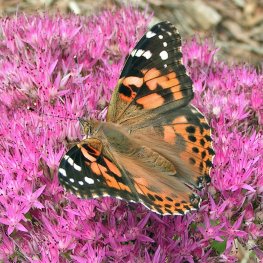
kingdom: Animalia
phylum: Arthropoda
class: Insecta
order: Lepidoptera
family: Nymphalidae
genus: Vanessa
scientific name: Vanessa cardui
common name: Painted Lady
